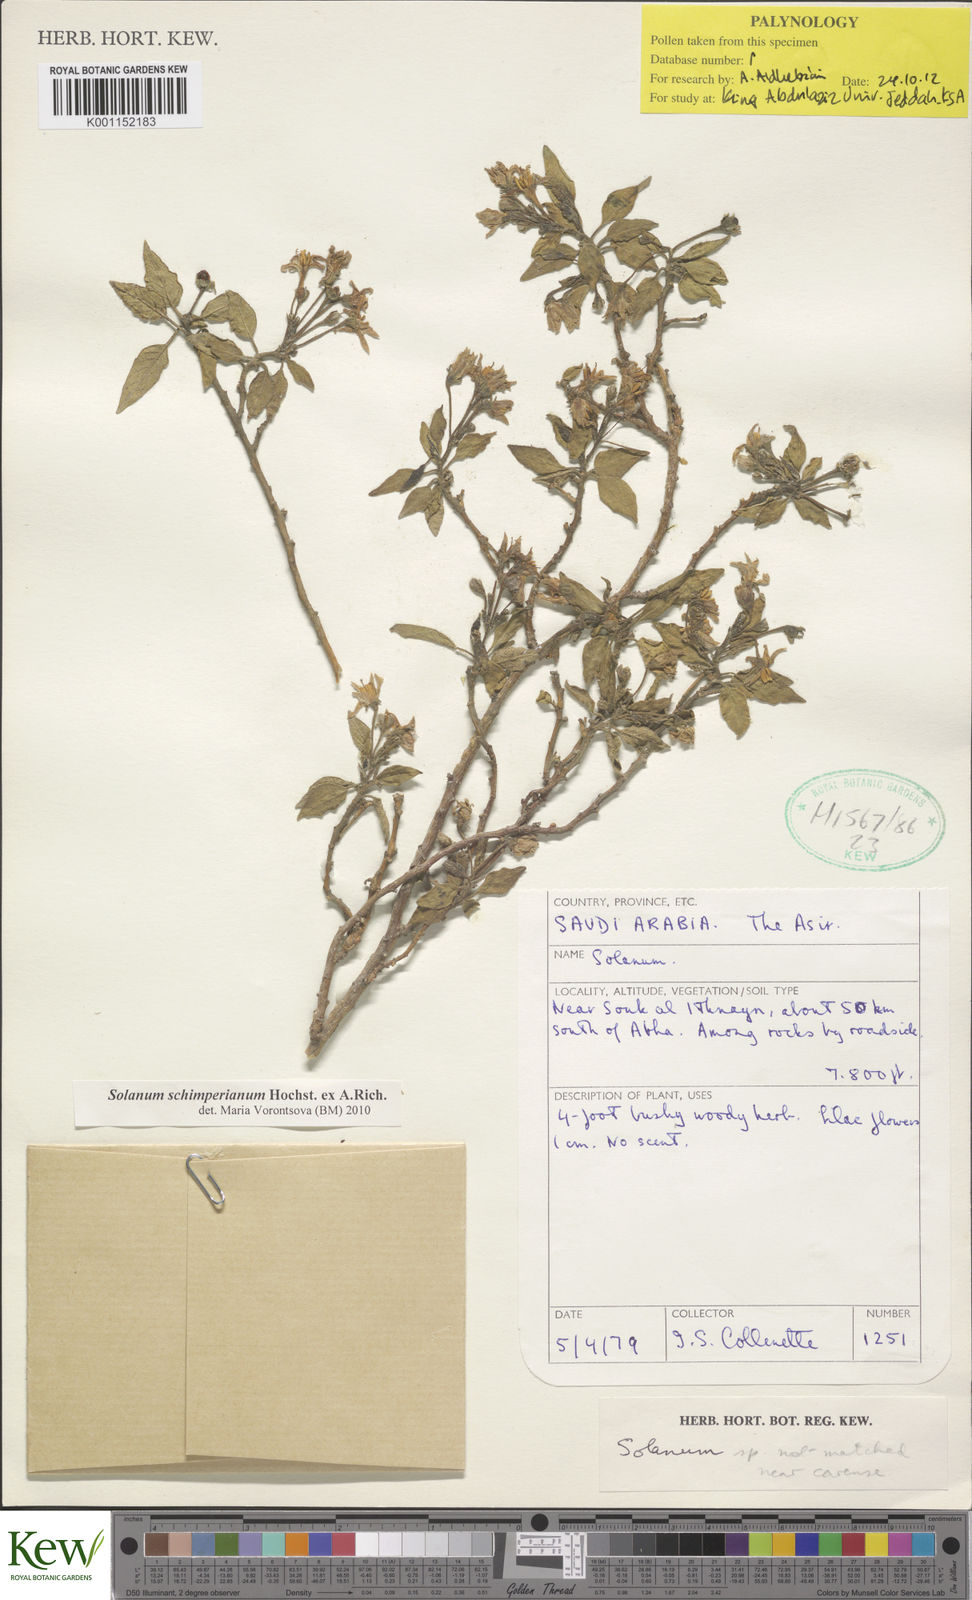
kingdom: Plantae
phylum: Tracheophyta
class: Magnoliopsida
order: Solanales
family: Solanaceae
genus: Solanum
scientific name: Solanum
